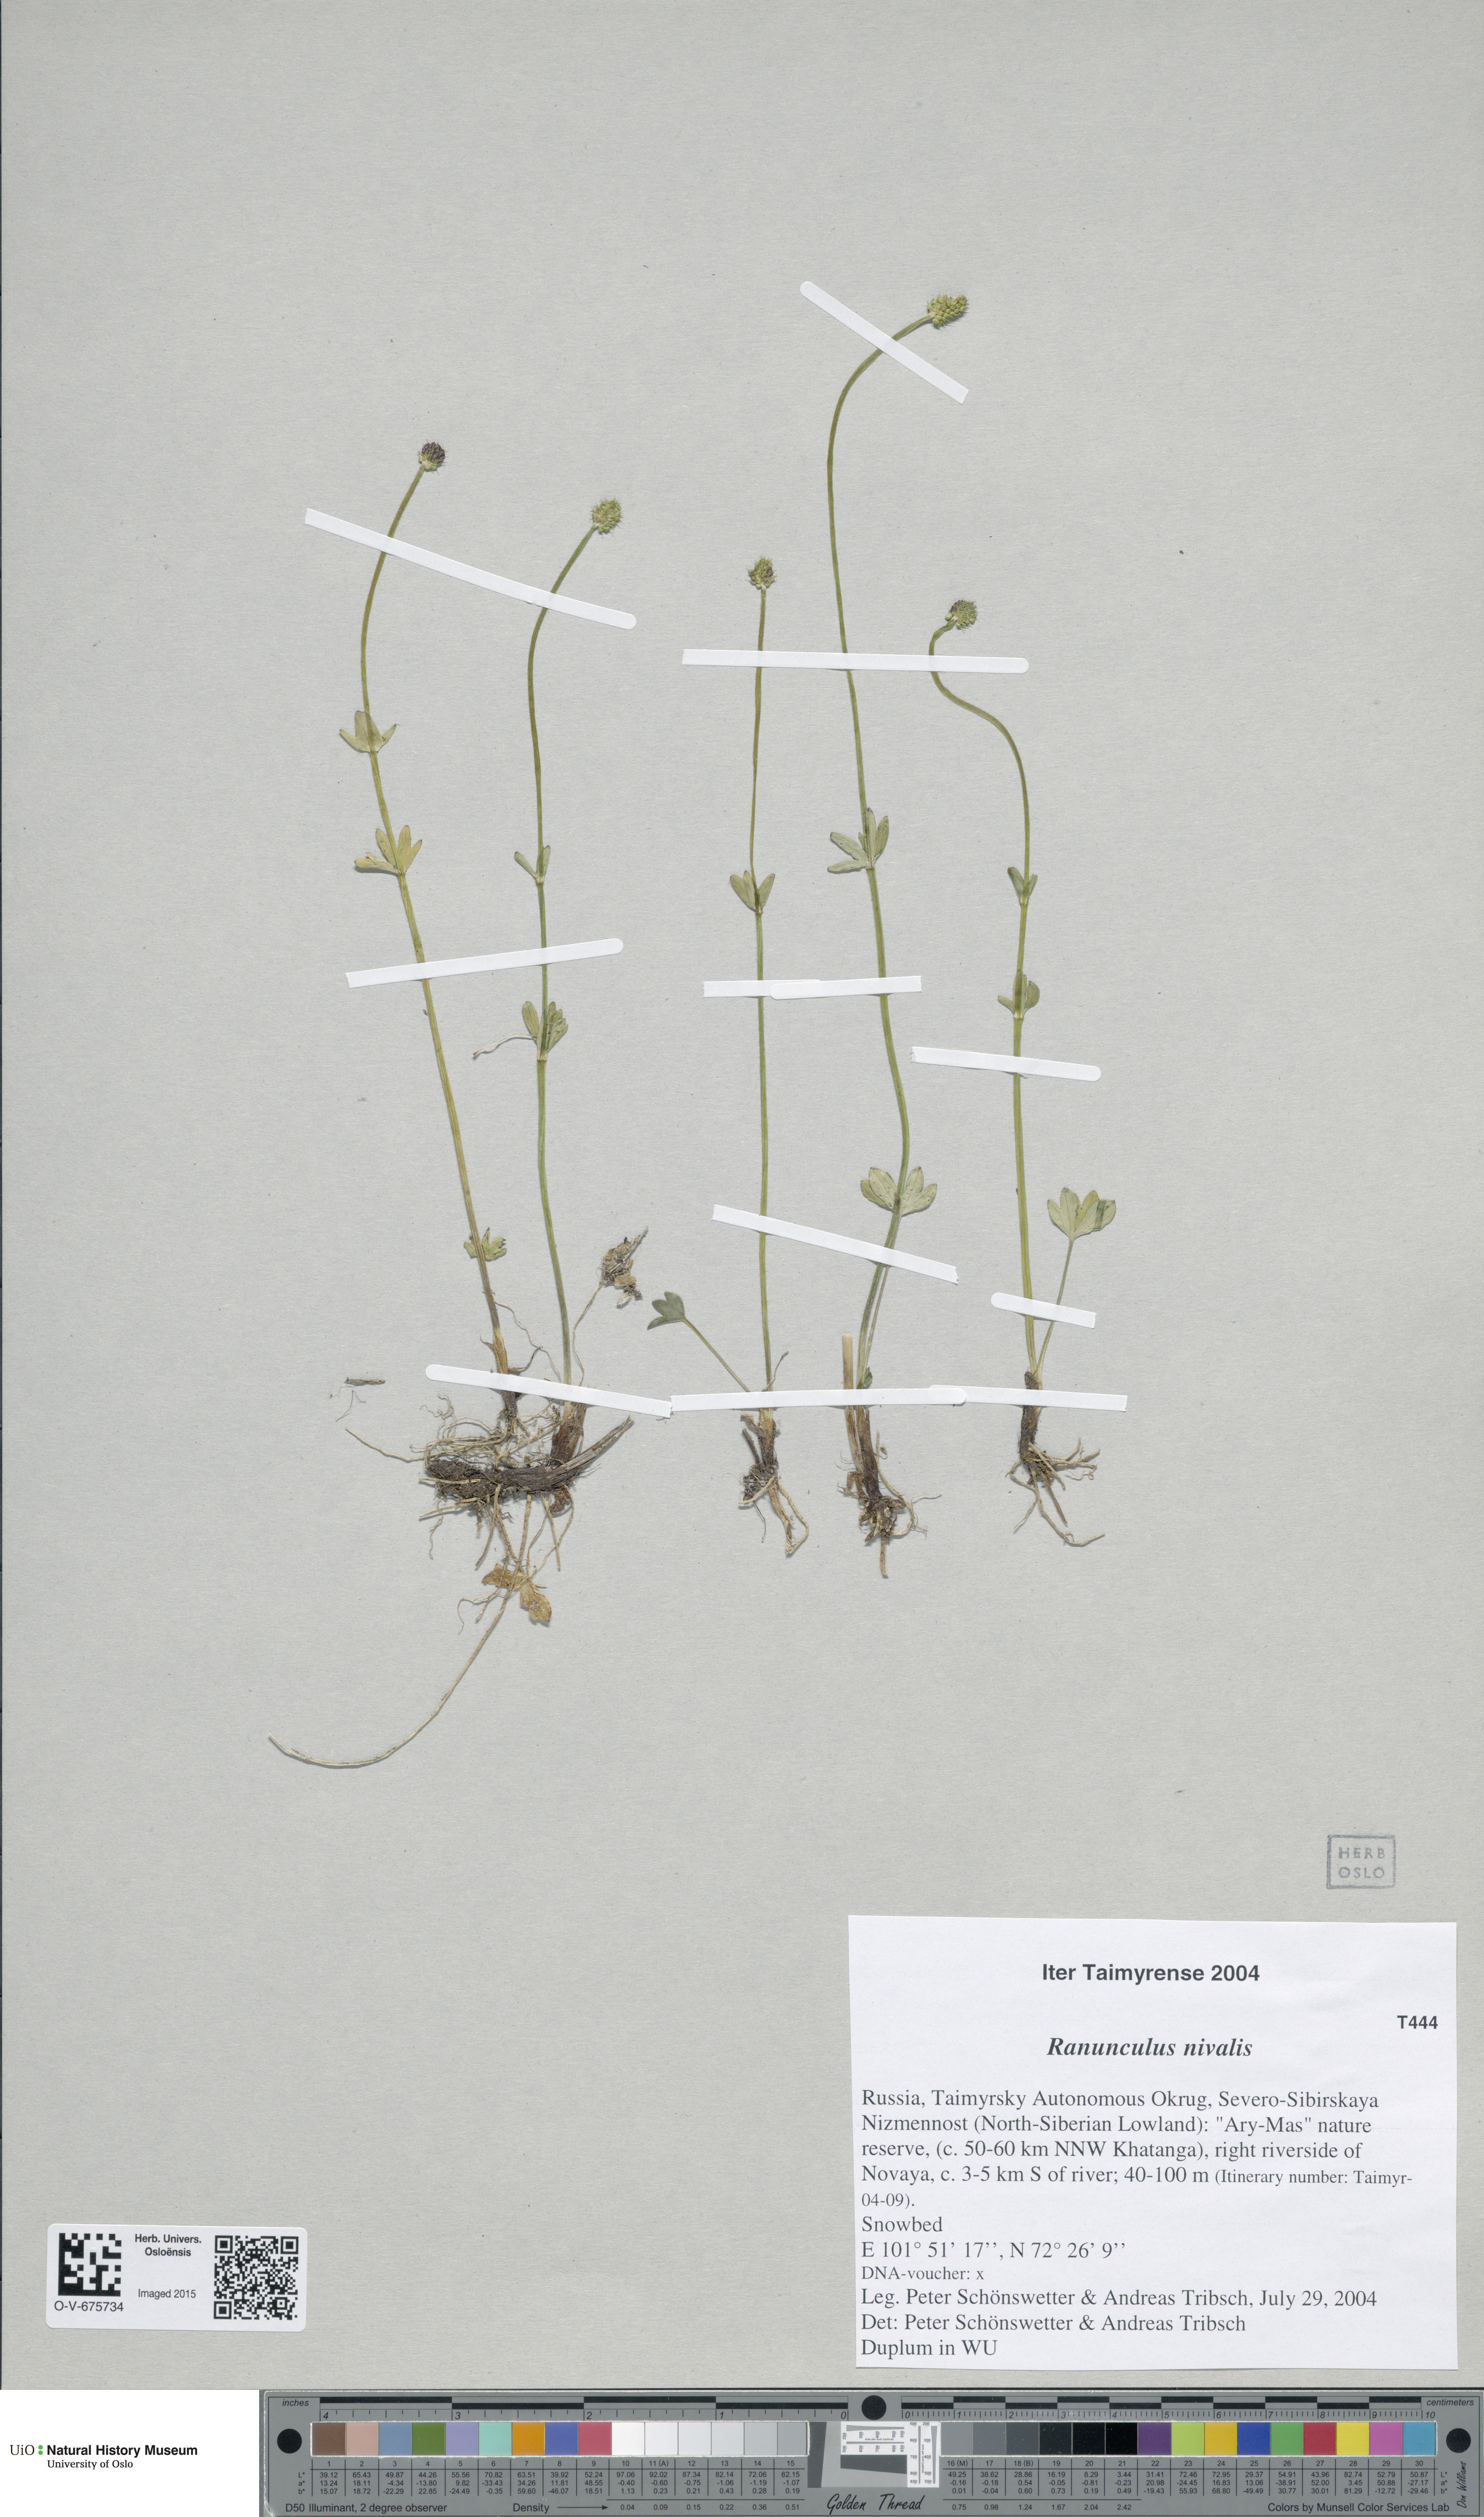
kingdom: Plantae
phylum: Tracheophyta
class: Magnoliopsida
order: Ranunculales
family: Ranunculaceae
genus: Ranunculus
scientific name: Ranunculus nivalis
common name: Snow buttercup
